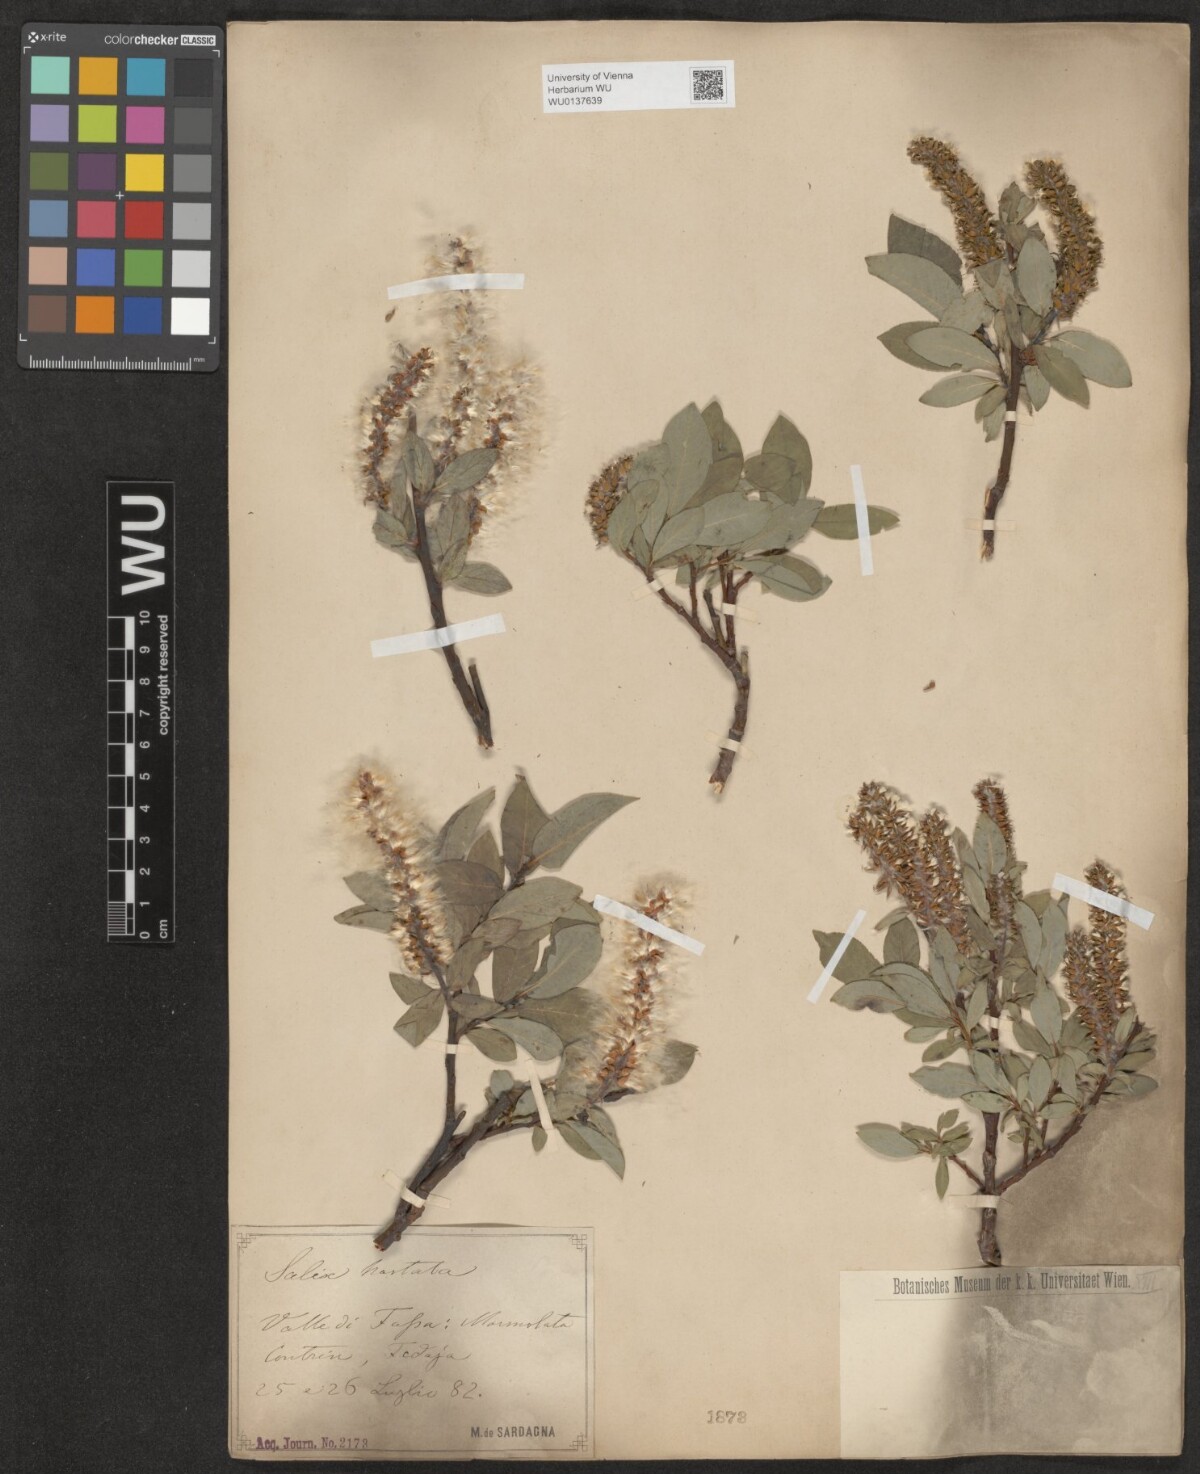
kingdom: Plantae
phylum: Tracheophyta
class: Magnoliopsida
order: Malpighiales
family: Salicaceae
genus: Salix
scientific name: Salix hastata
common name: Halberd willow
